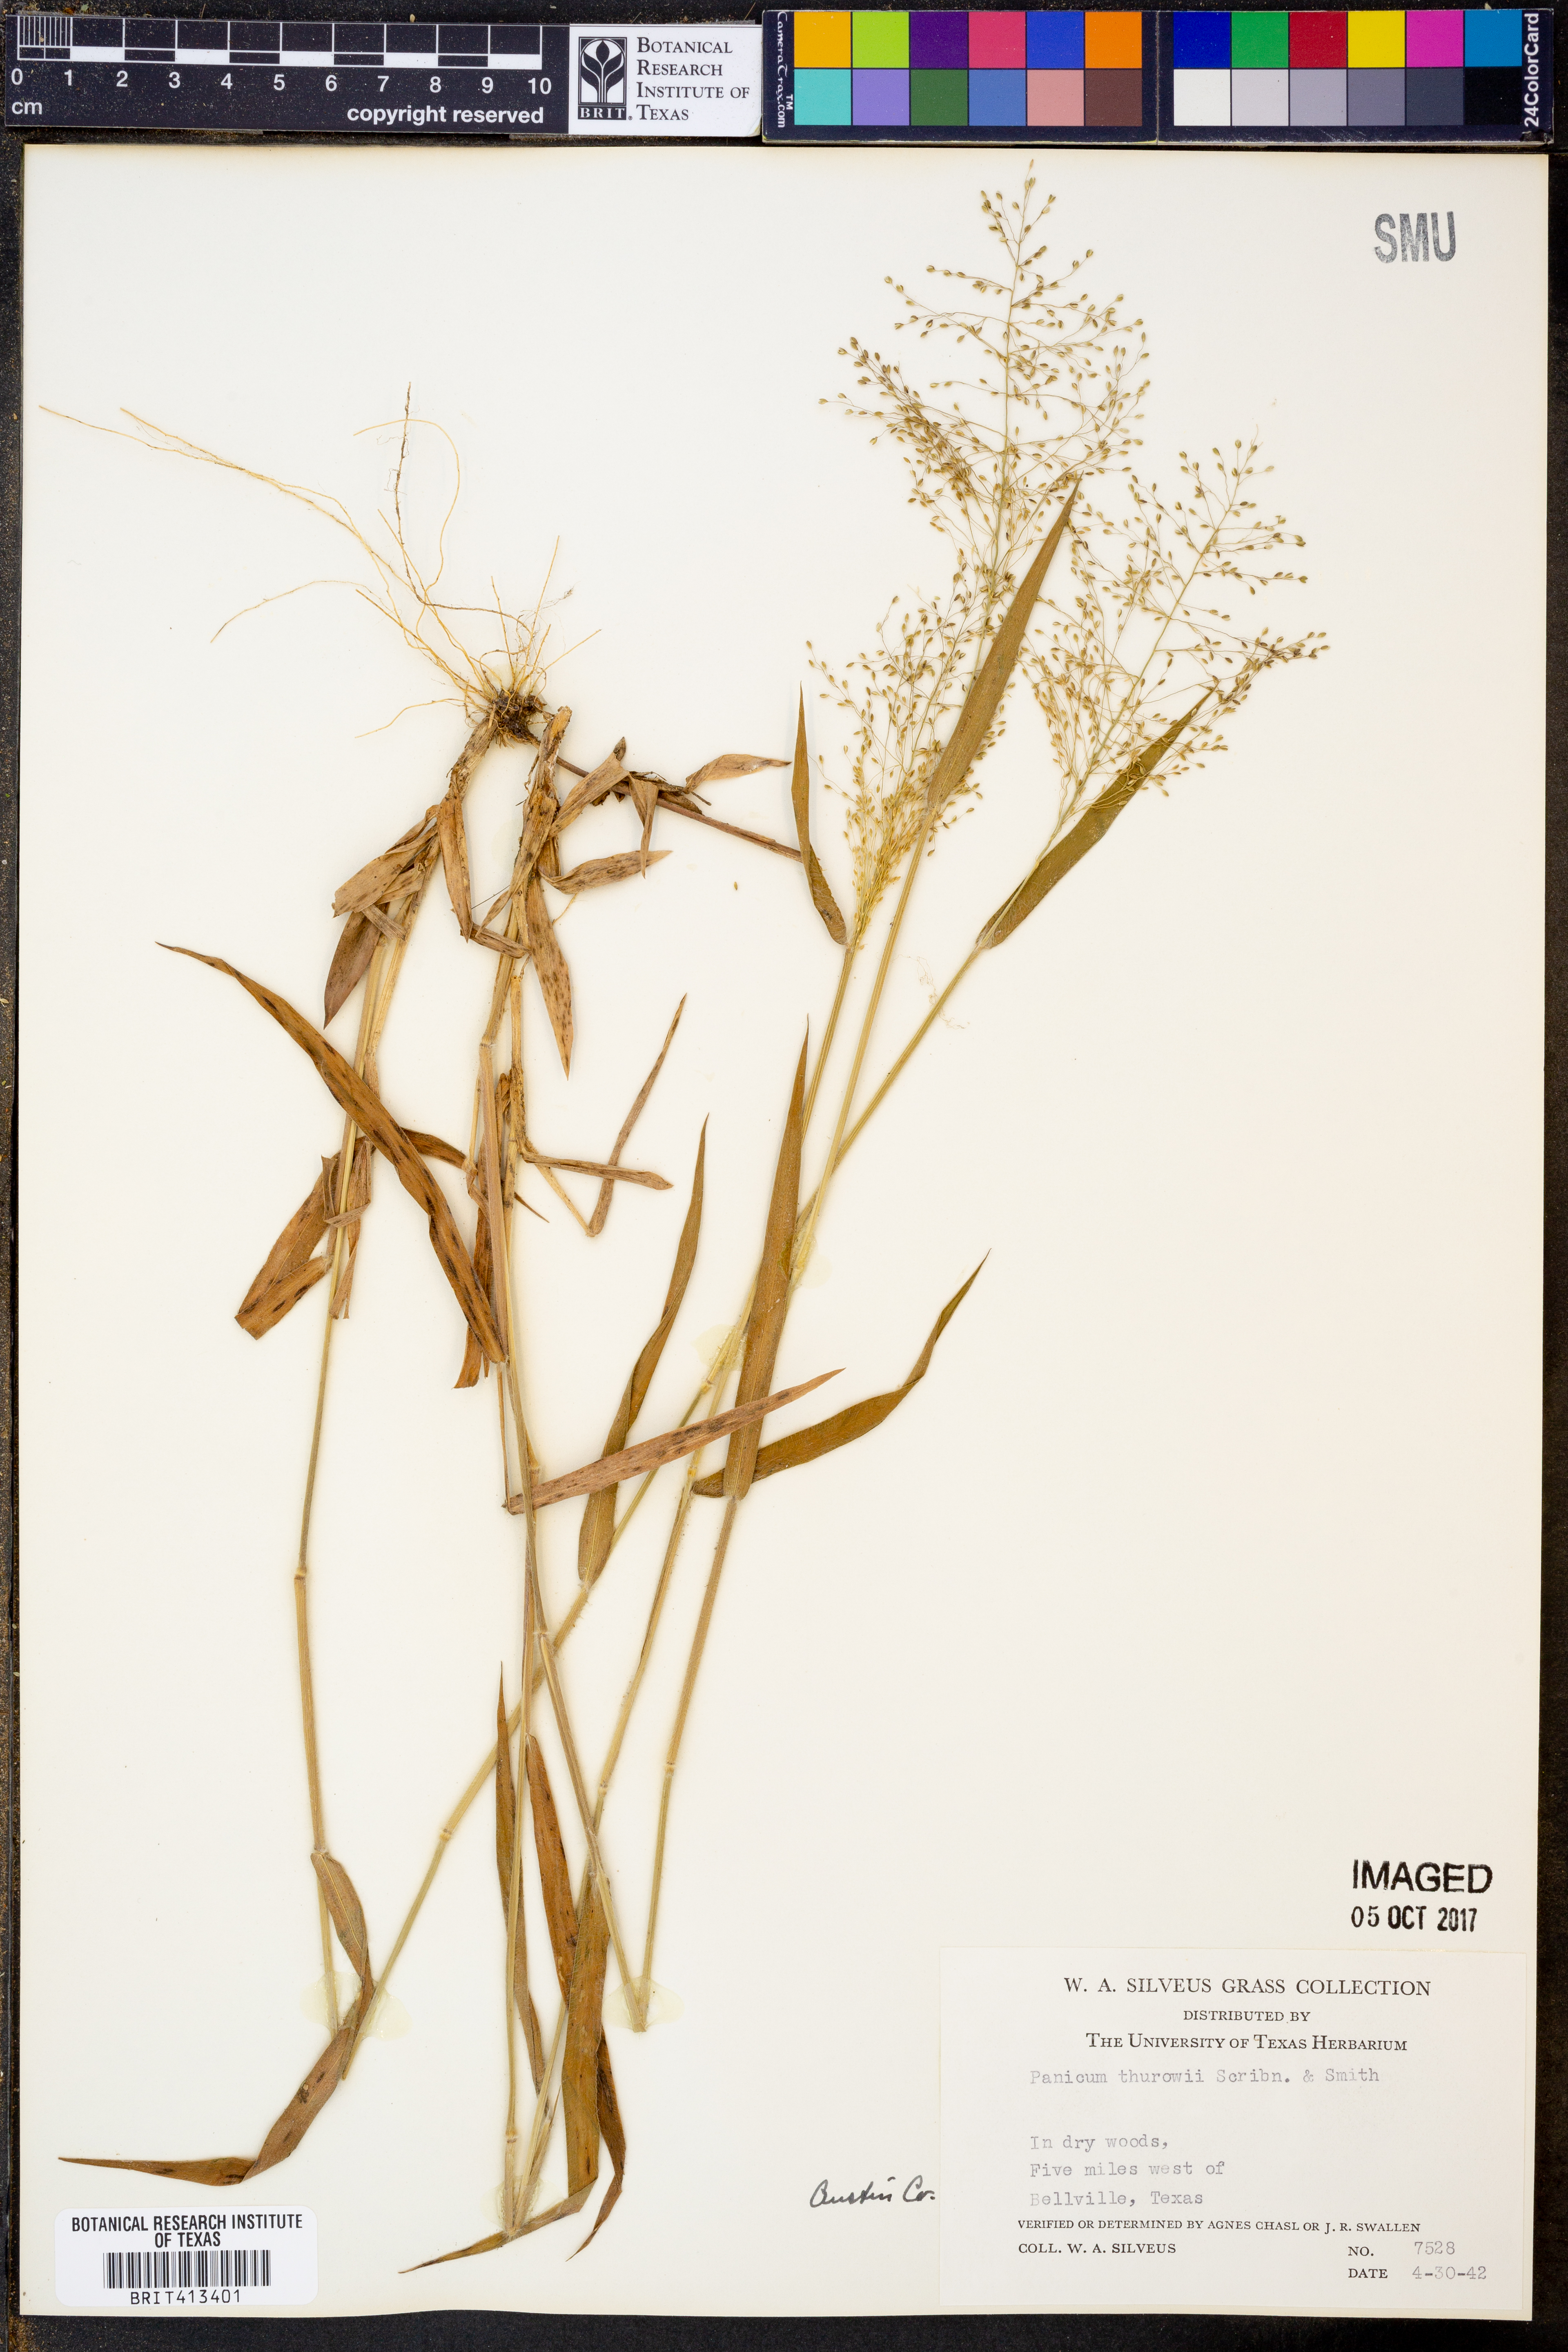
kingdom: Plantae
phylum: Tracheophyta
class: Liliopsida
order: Poales
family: Poaceae
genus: Dichanthelium
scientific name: Dichanthelium acuminatum
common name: Hairy panic grass
